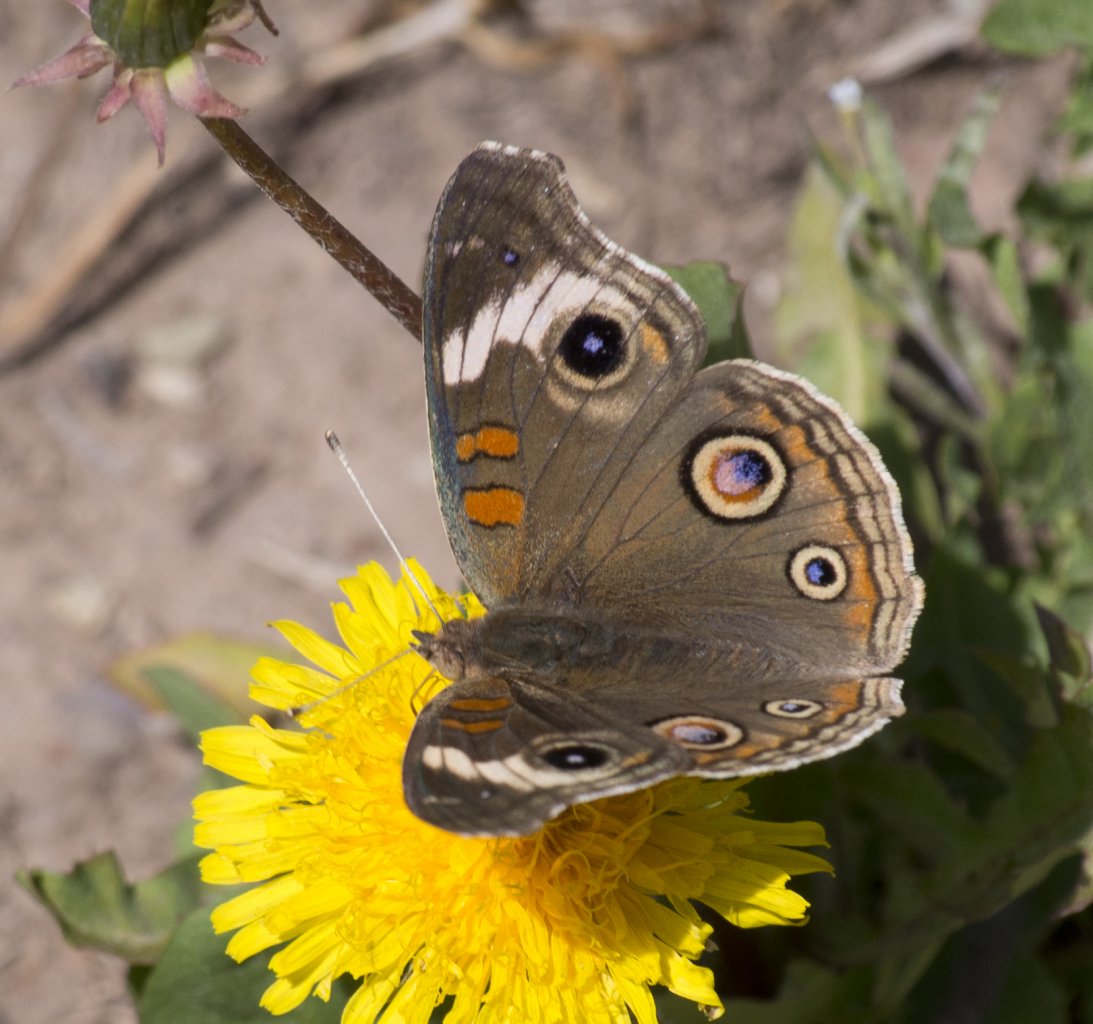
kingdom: Animalia
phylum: Arthropoda
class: Insecta
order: Lepidoptera
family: Nymphalidae
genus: Junonia
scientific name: Junonia coenia
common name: Common Buckeye
